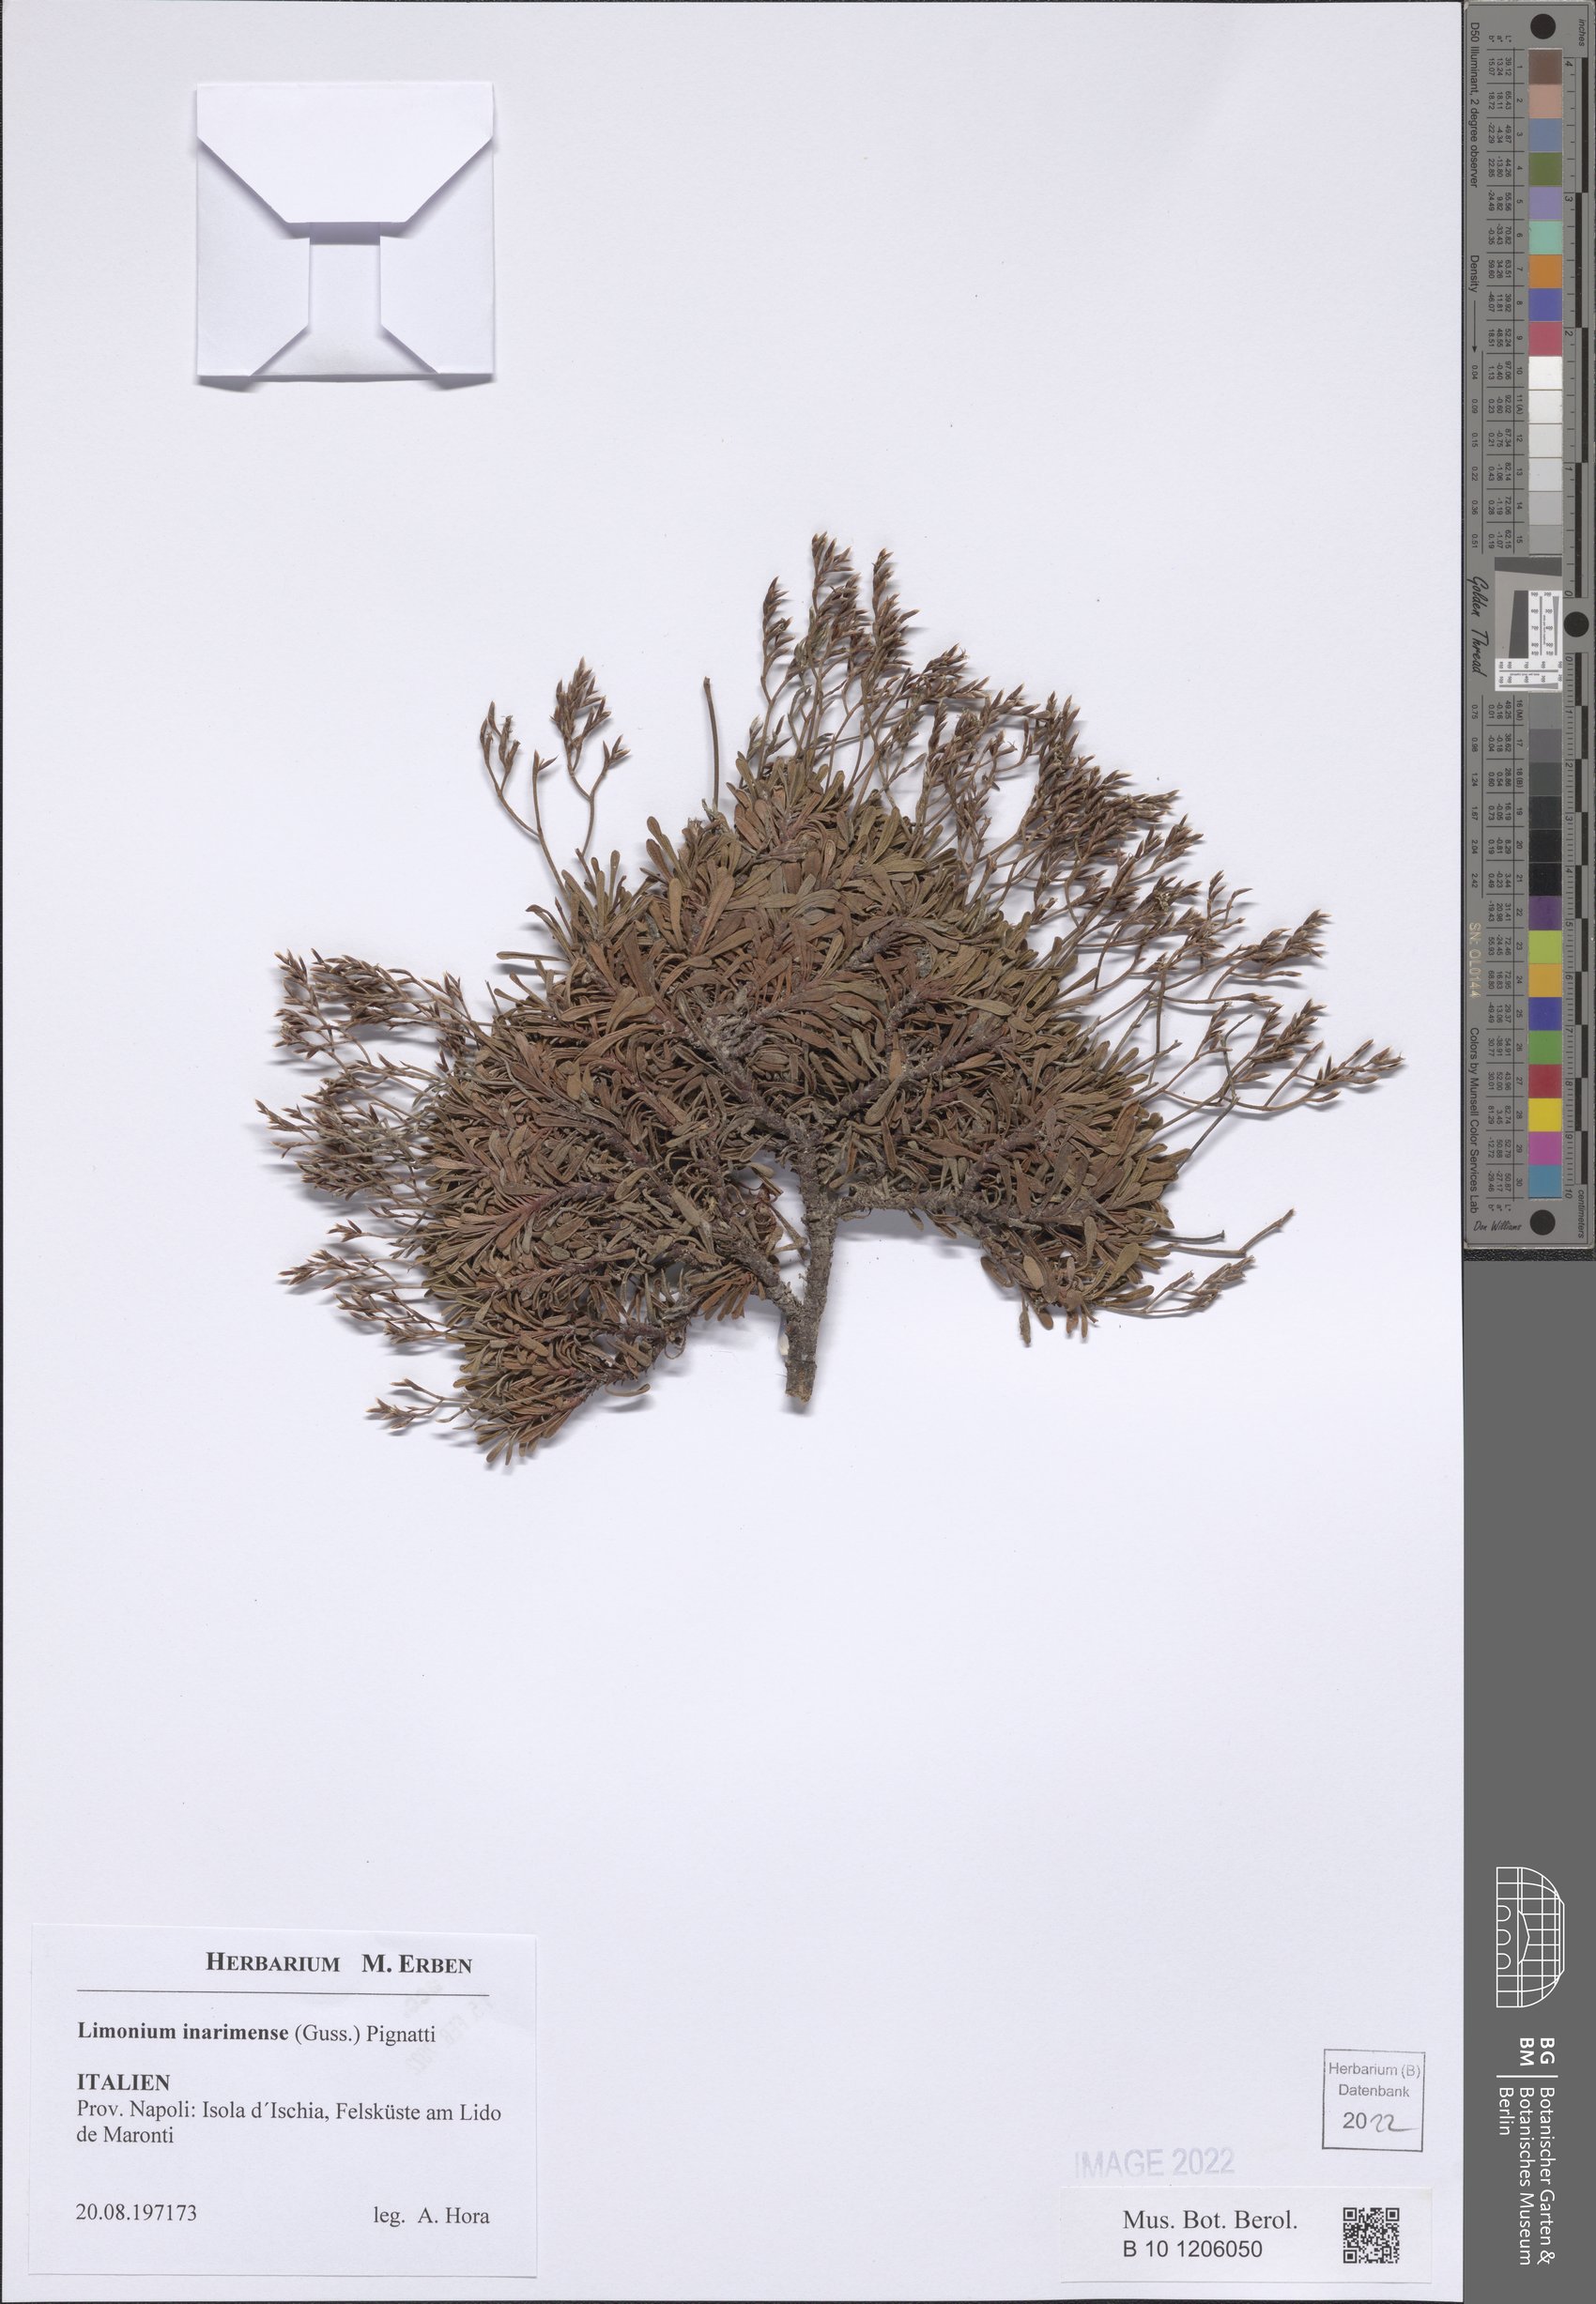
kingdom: Plantae
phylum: Tracheophyta
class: Magnoliopsida
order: Caryophyllales
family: Plumbaginaceae
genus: Limonium
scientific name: Limonium inarimense
